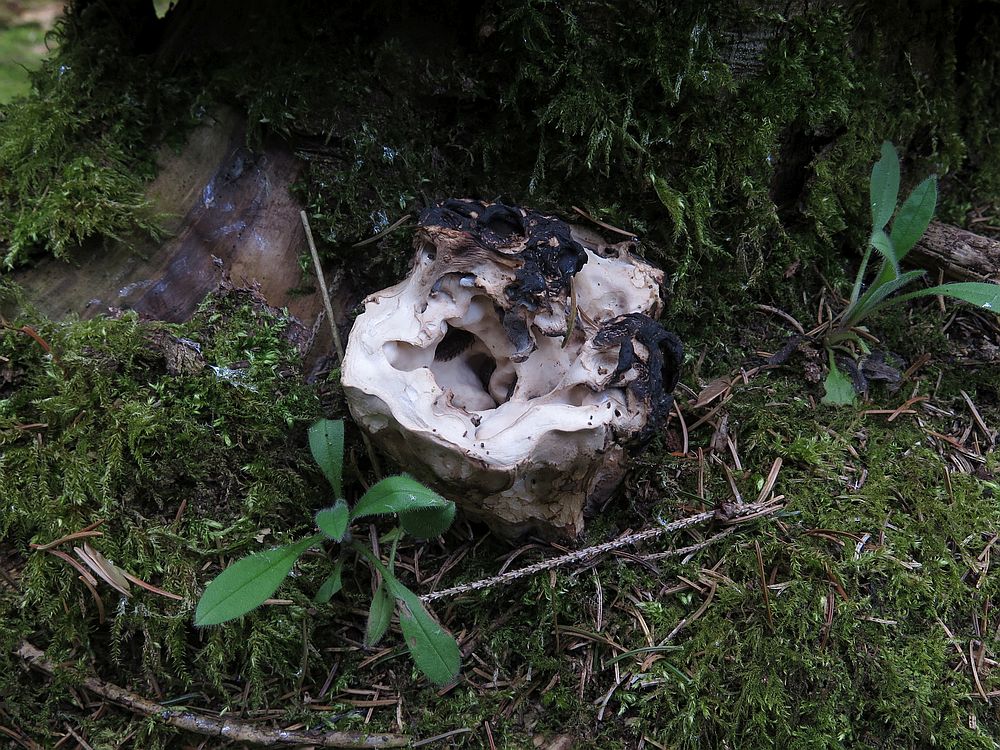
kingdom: Fungi
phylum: Ascomycota
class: Pezizomycetes
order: Pezizales
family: Discinaceae
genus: Gyromitra
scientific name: Gyromitra gigas
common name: kæmpe-stenmorkel
